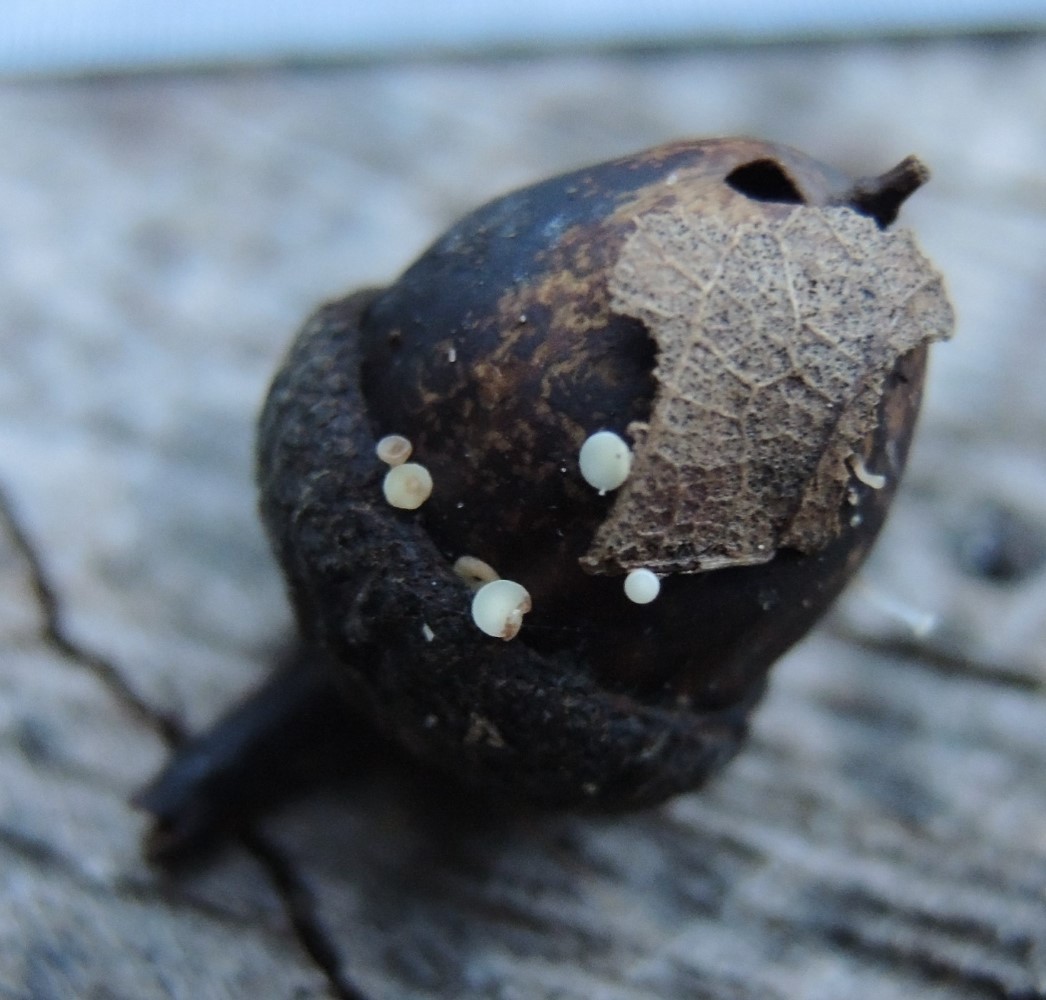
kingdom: Fungi
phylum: Ascomycota
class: Leotiomycetes
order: Helotiales
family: Helotiaceae
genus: Hymenoscyphus
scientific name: Hymenoscyphus
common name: stilkskive
